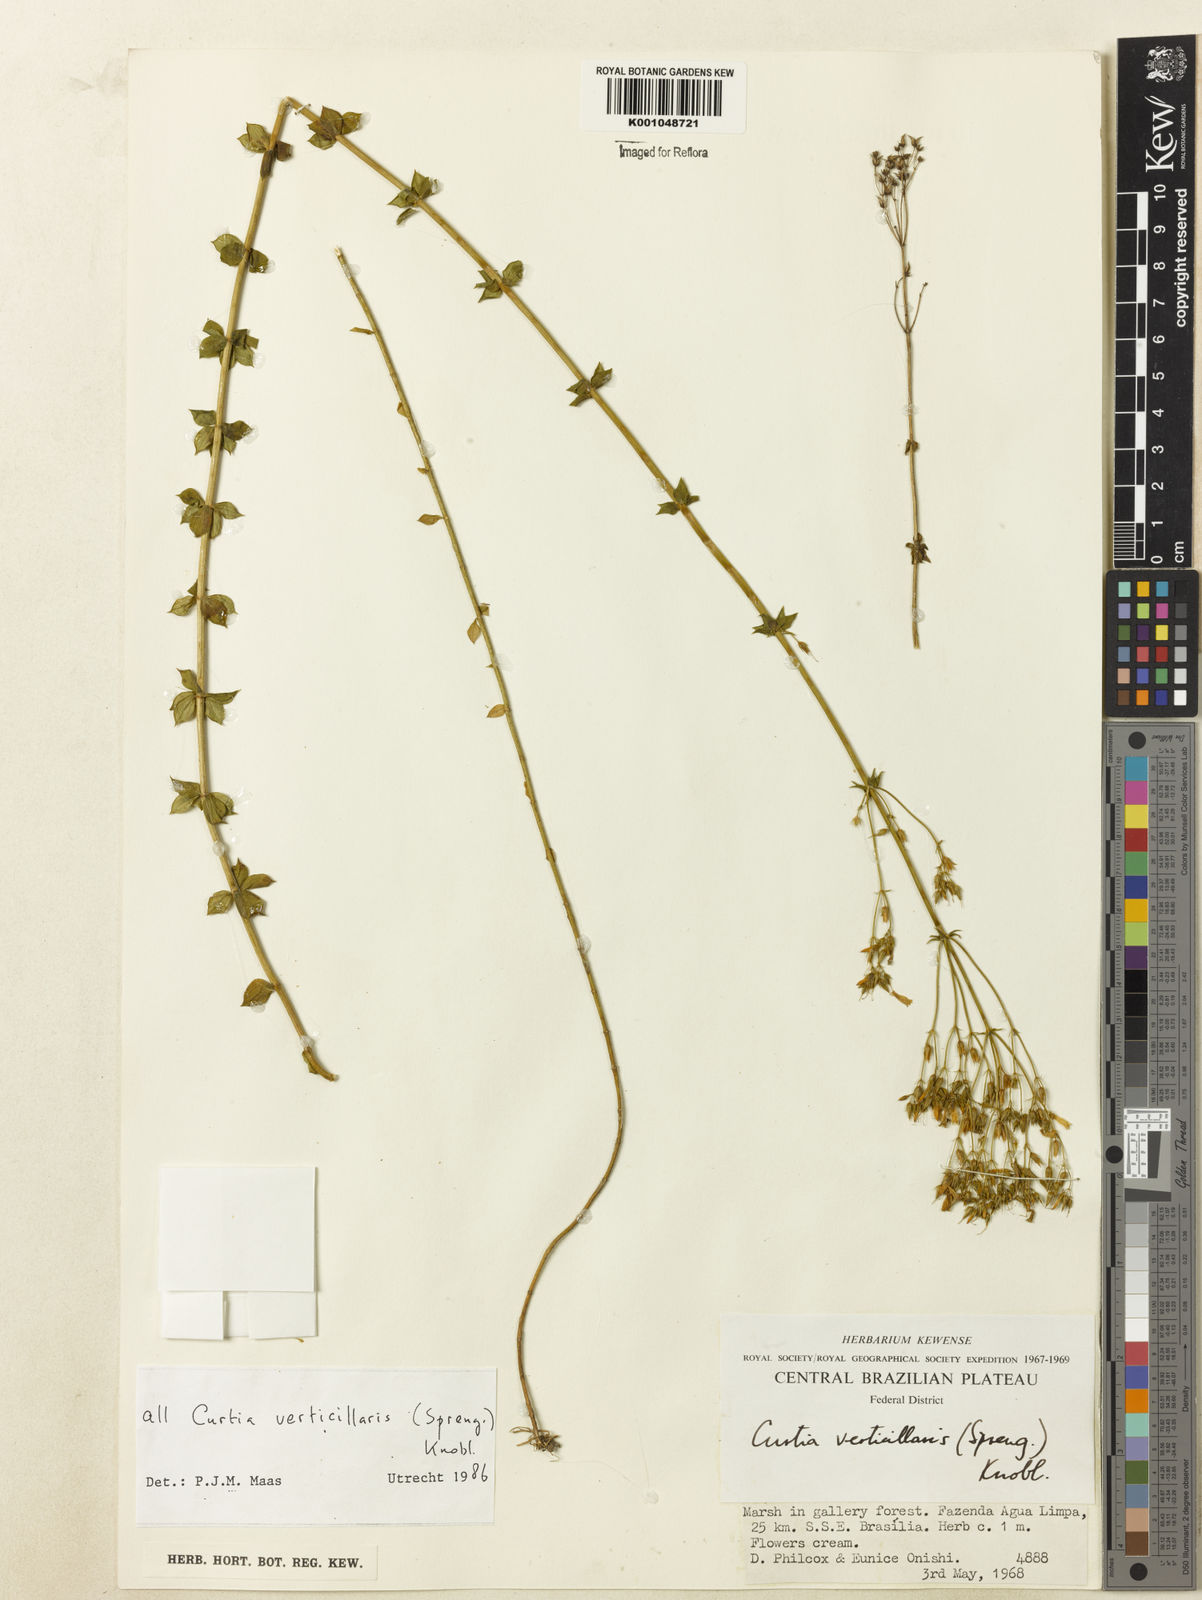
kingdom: Plantae
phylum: Tracheophyta
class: Magnoliopsida
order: Gentianales
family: Gentianaceae
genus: Curtia
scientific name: Curtia verticillaris
